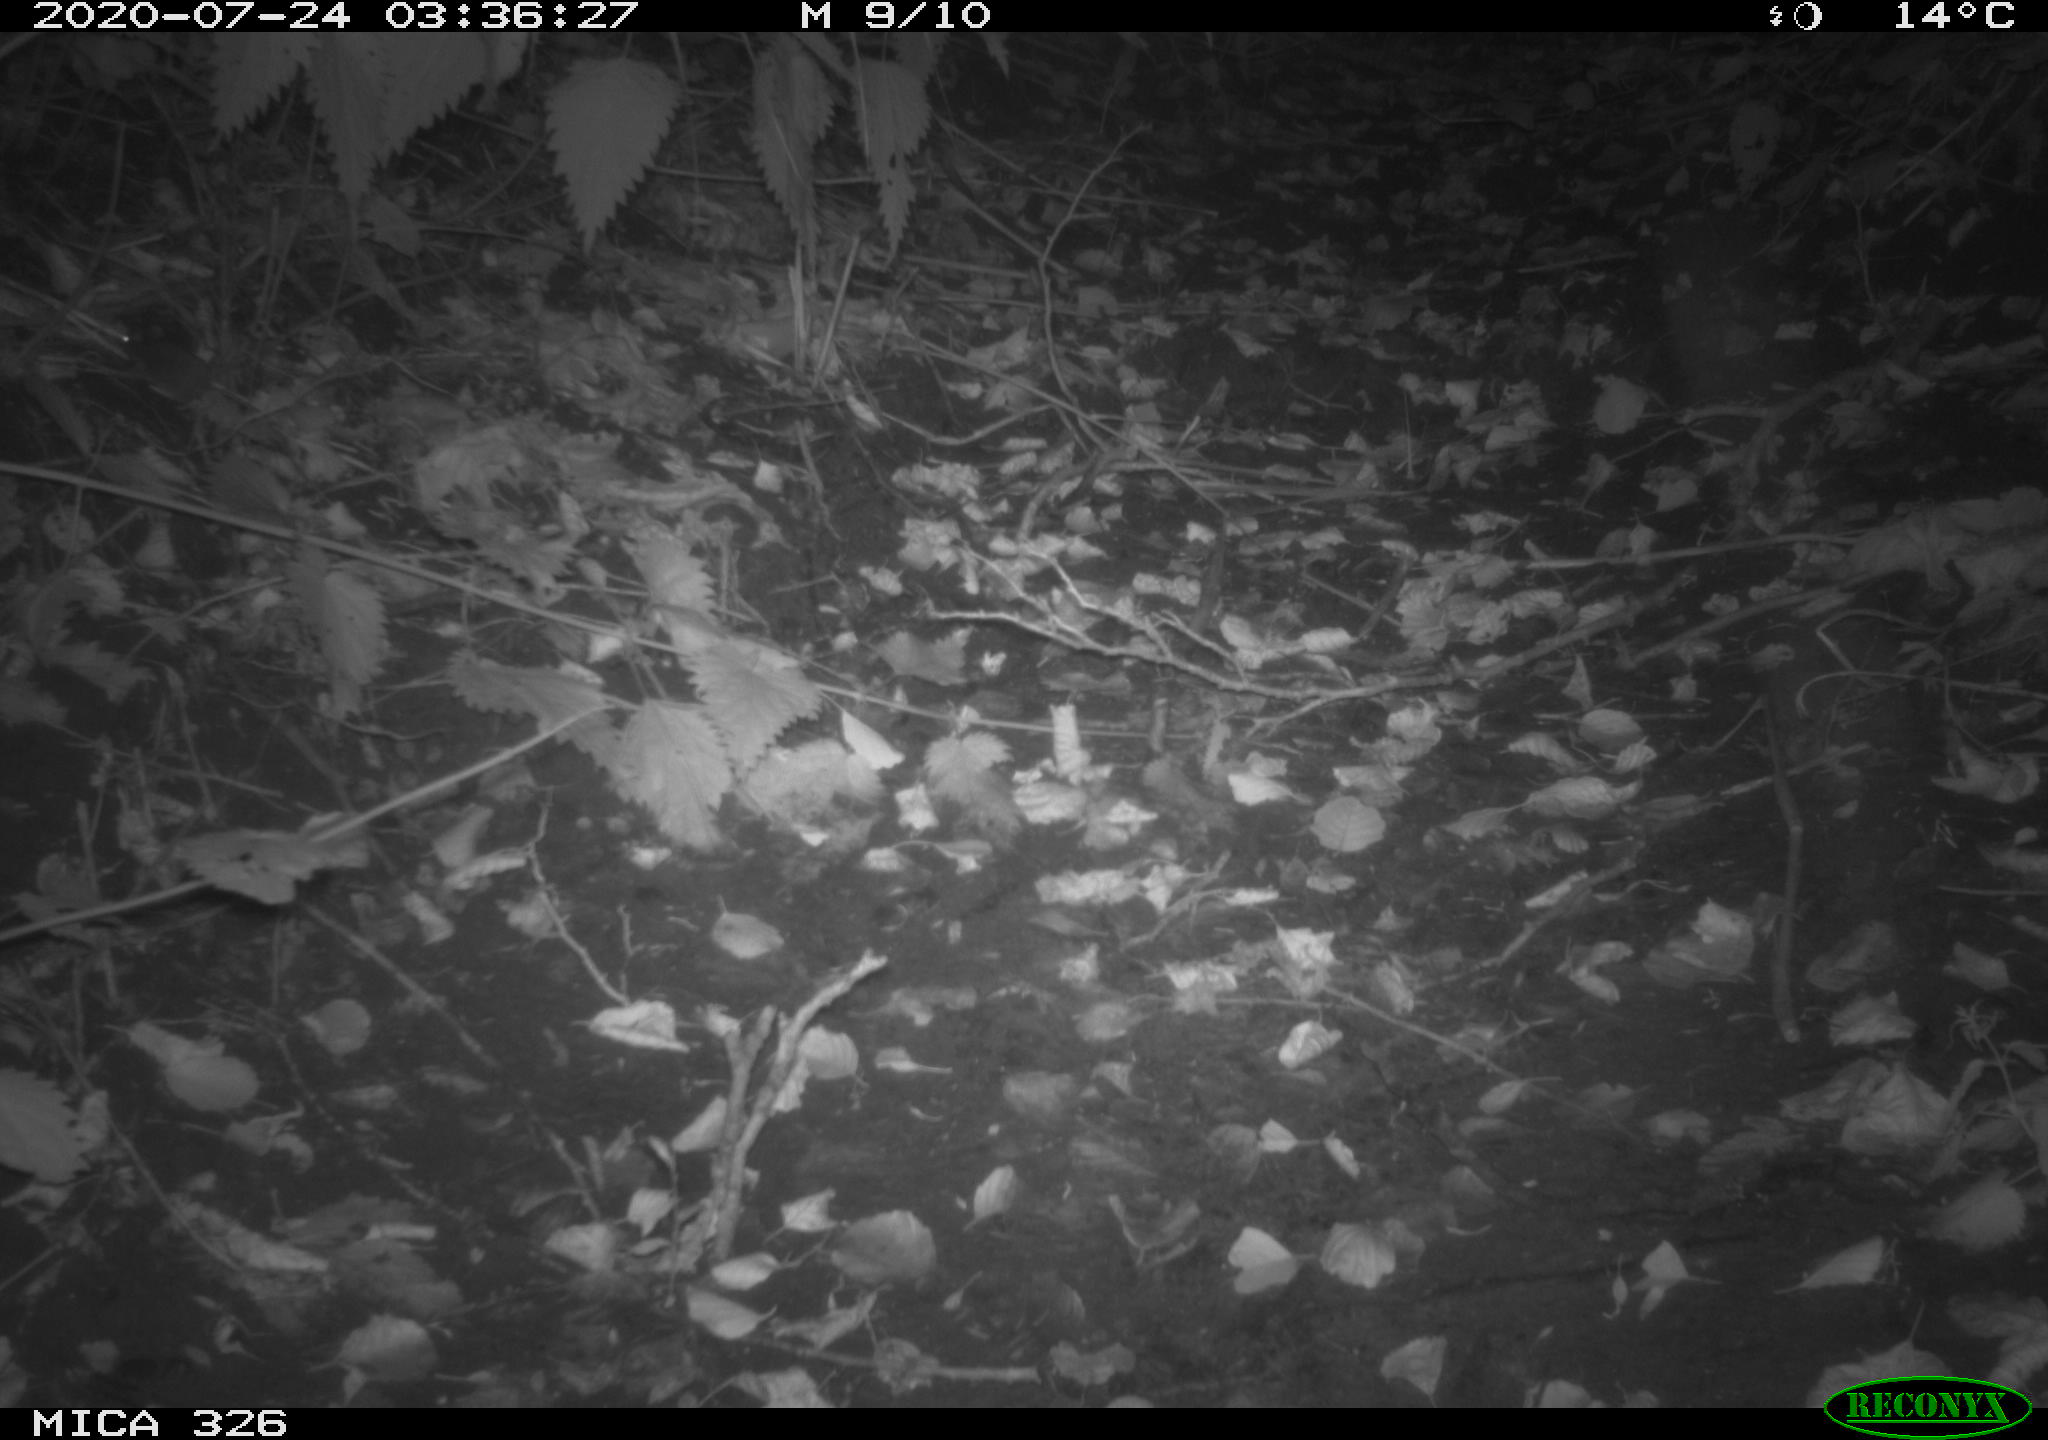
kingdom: Animalia
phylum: Chordata
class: Mammalia
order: Rodentia
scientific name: Rodentia
